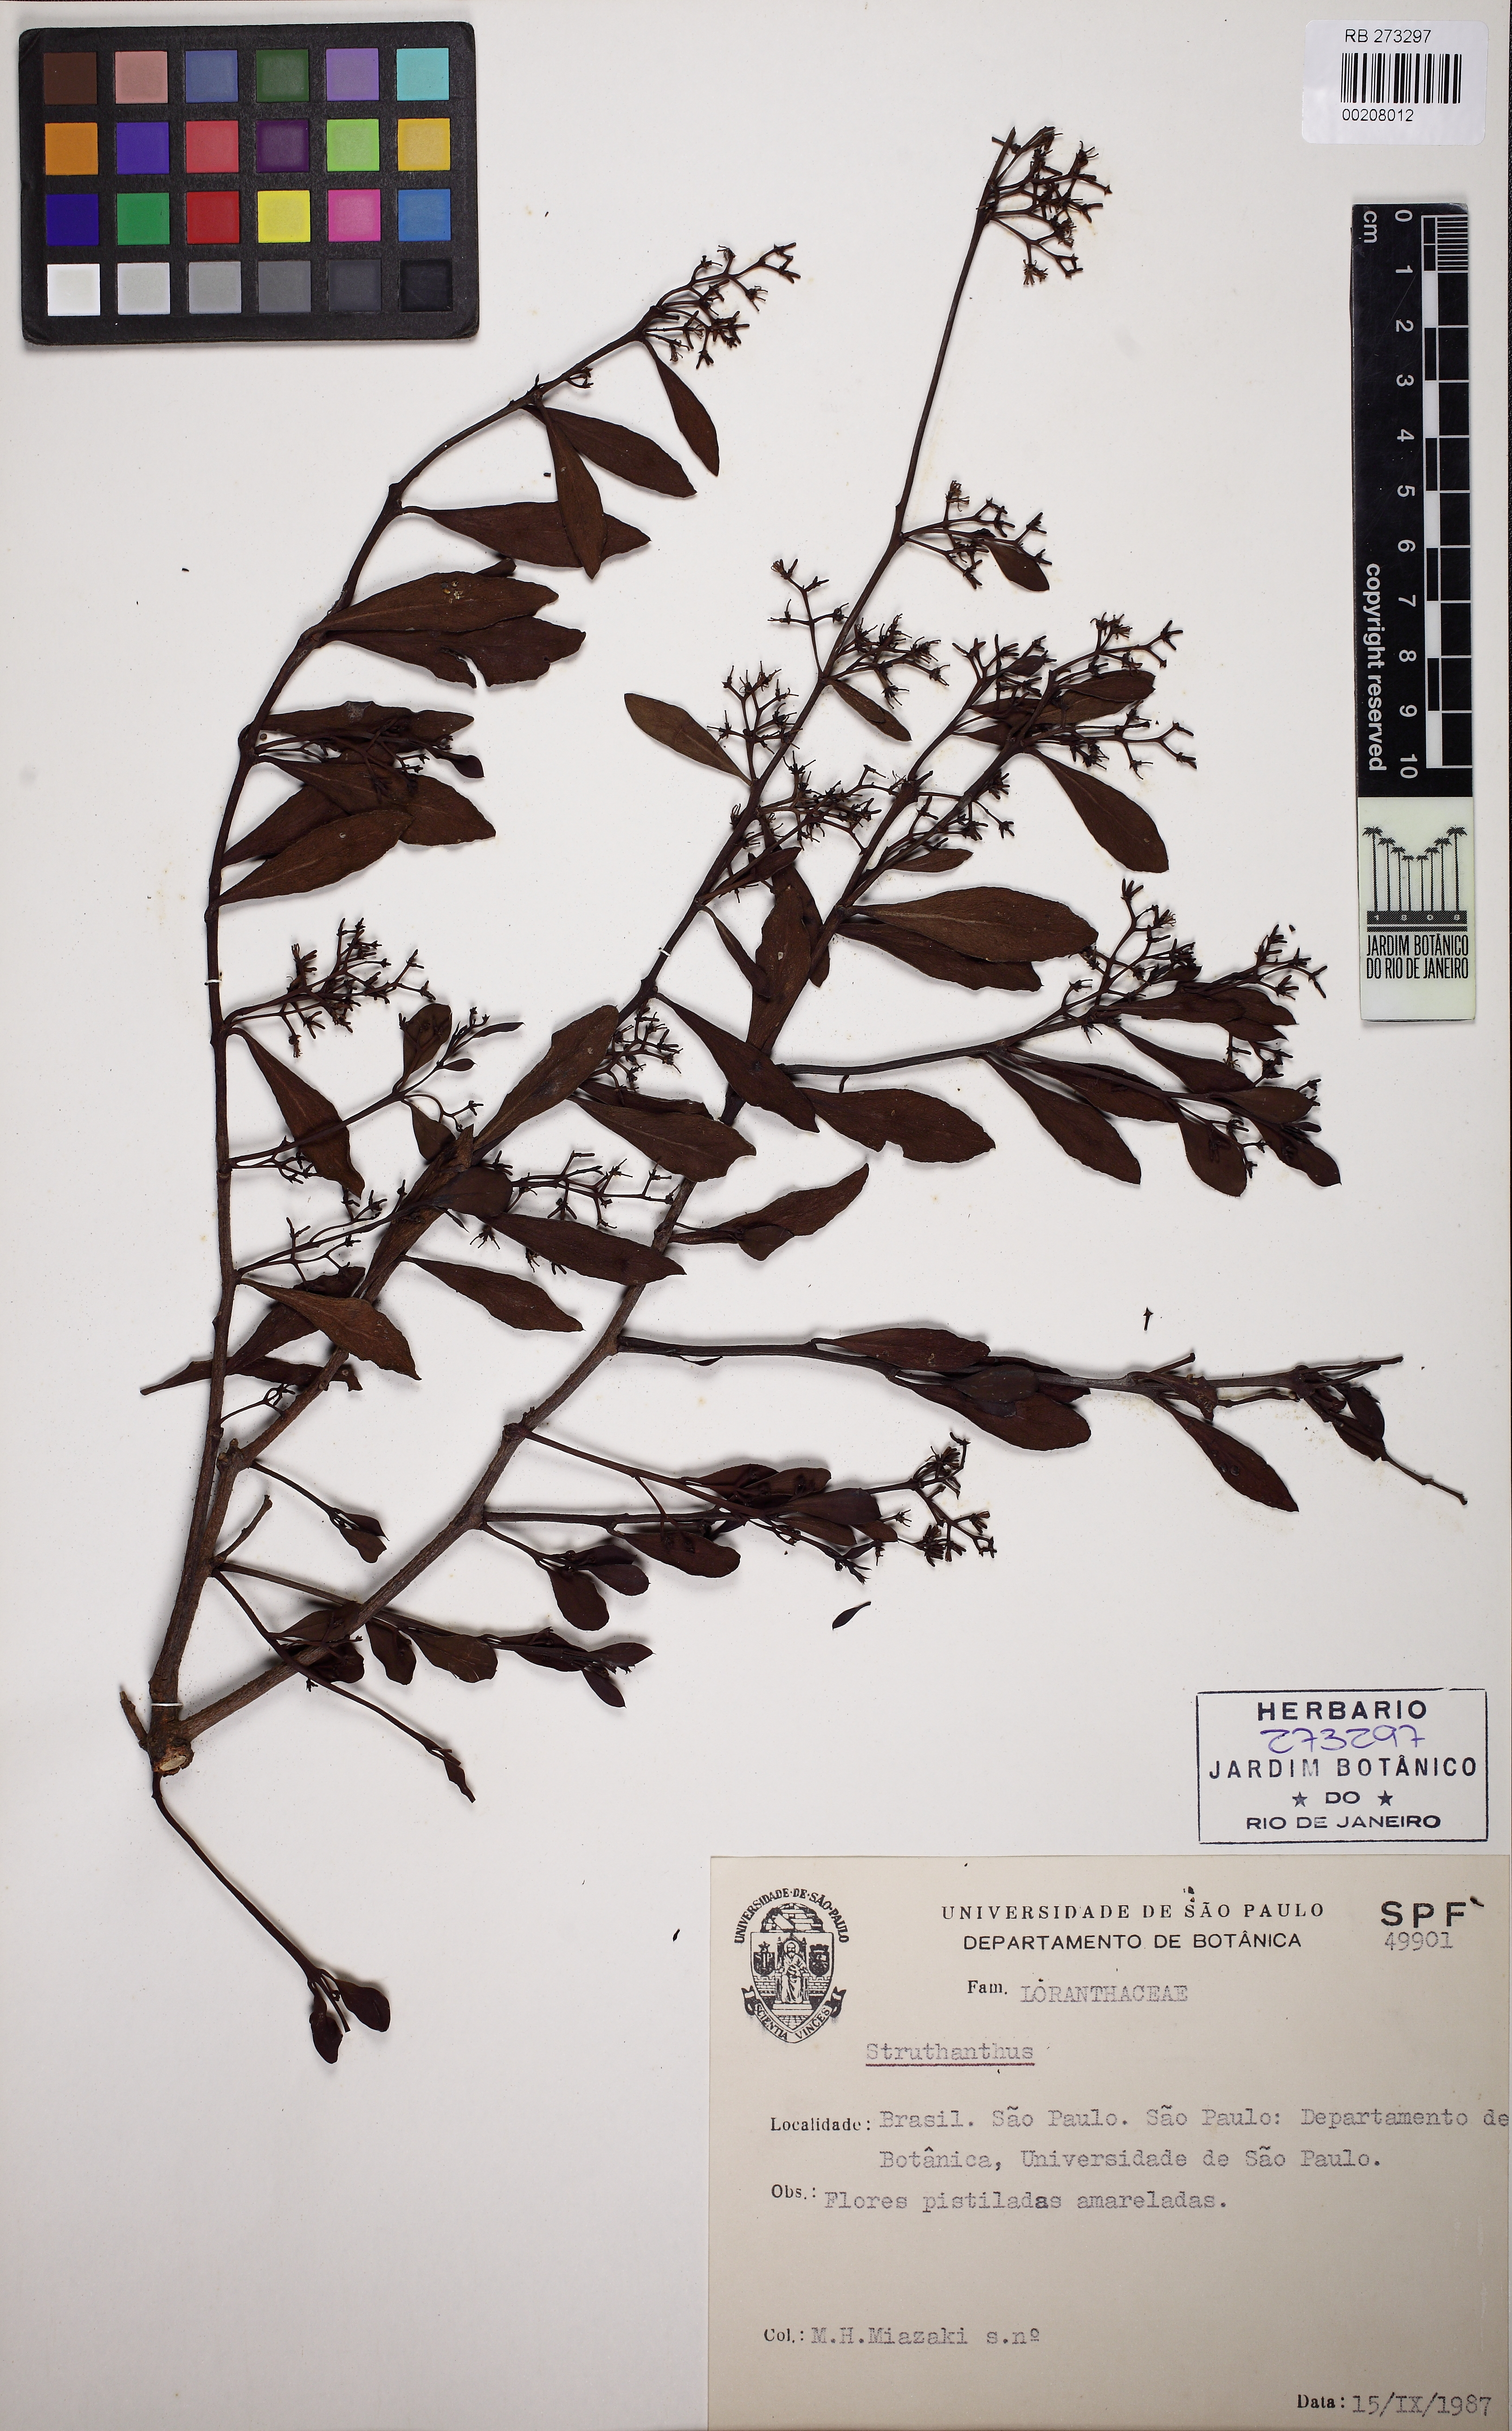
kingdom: Plantae
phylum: Tracheophyta
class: Magnoliopsida
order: Santalales
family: Loranthaceae
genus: Struthanthus
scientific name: Struthanthus
